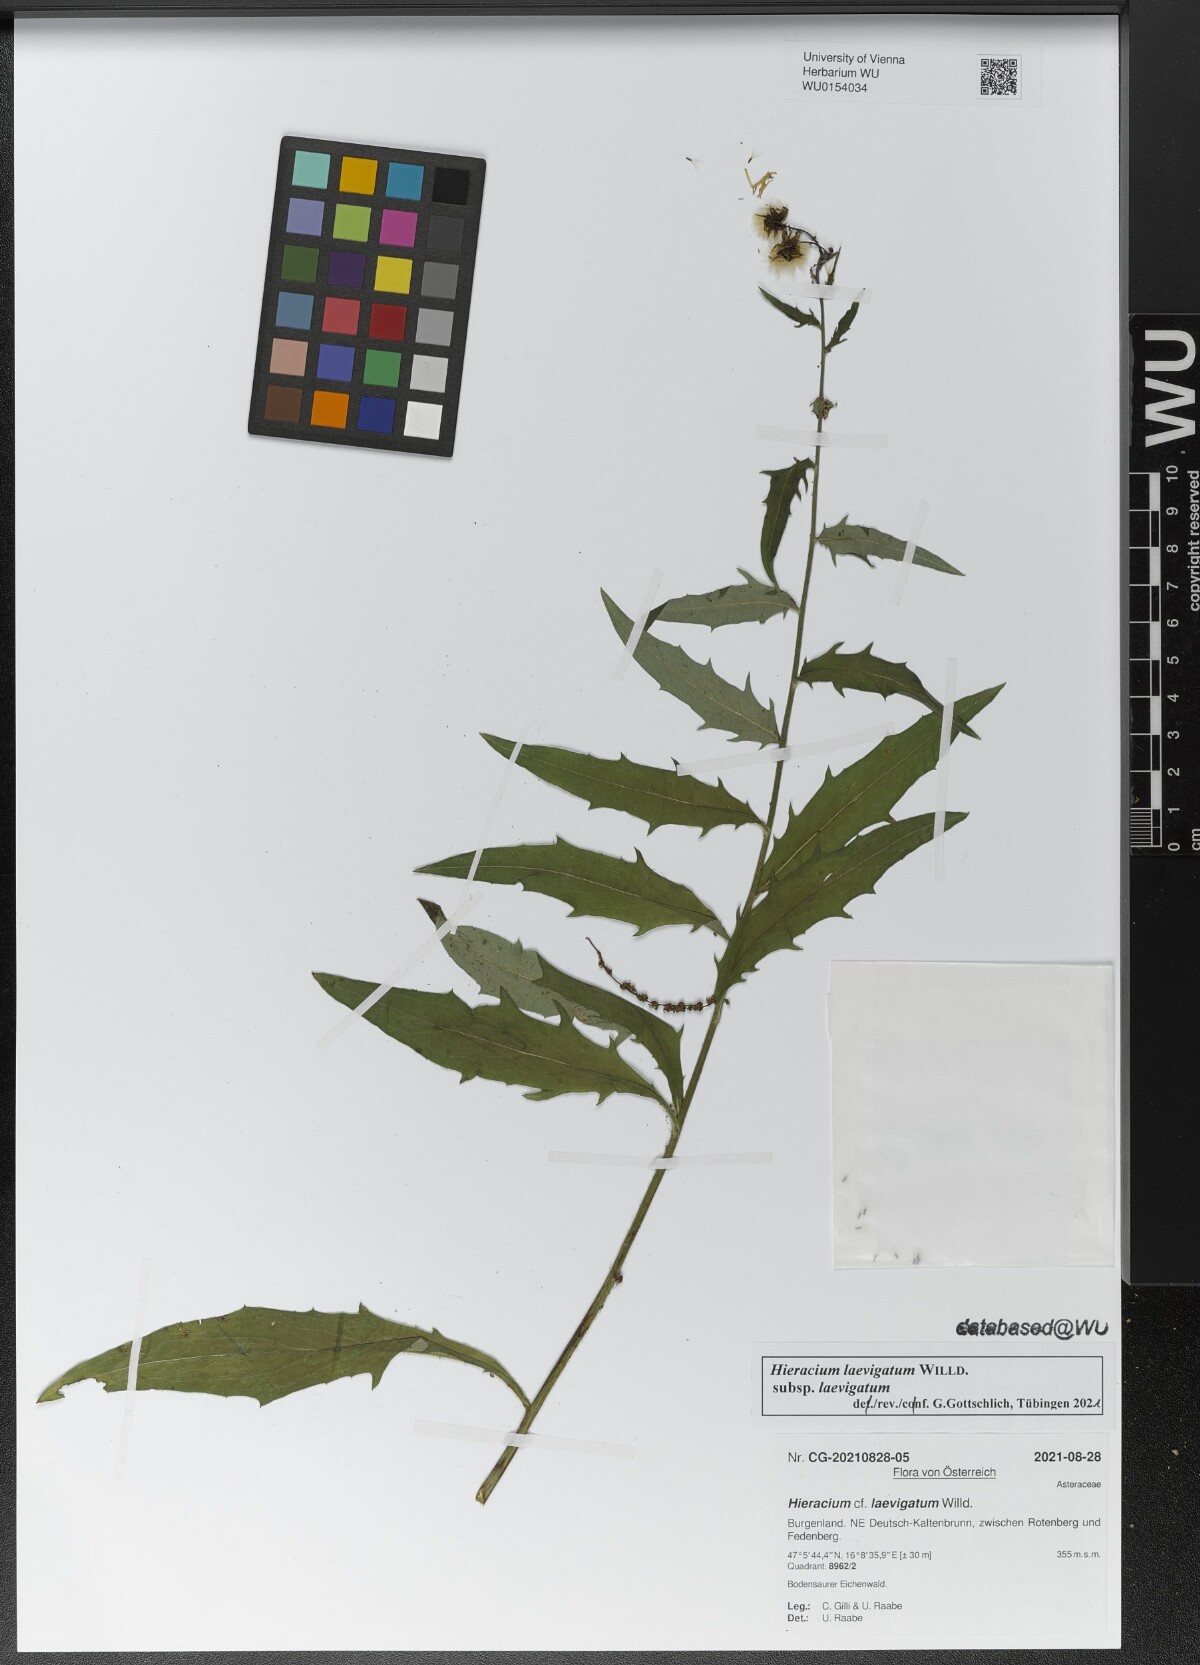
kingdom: Plantae
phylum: Tracheophyta
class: Magnoliopsida
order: Asterales
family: Asteraceae
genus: Hieracium
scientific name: Hieracium laevigatum
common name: Smooth hawkweed
